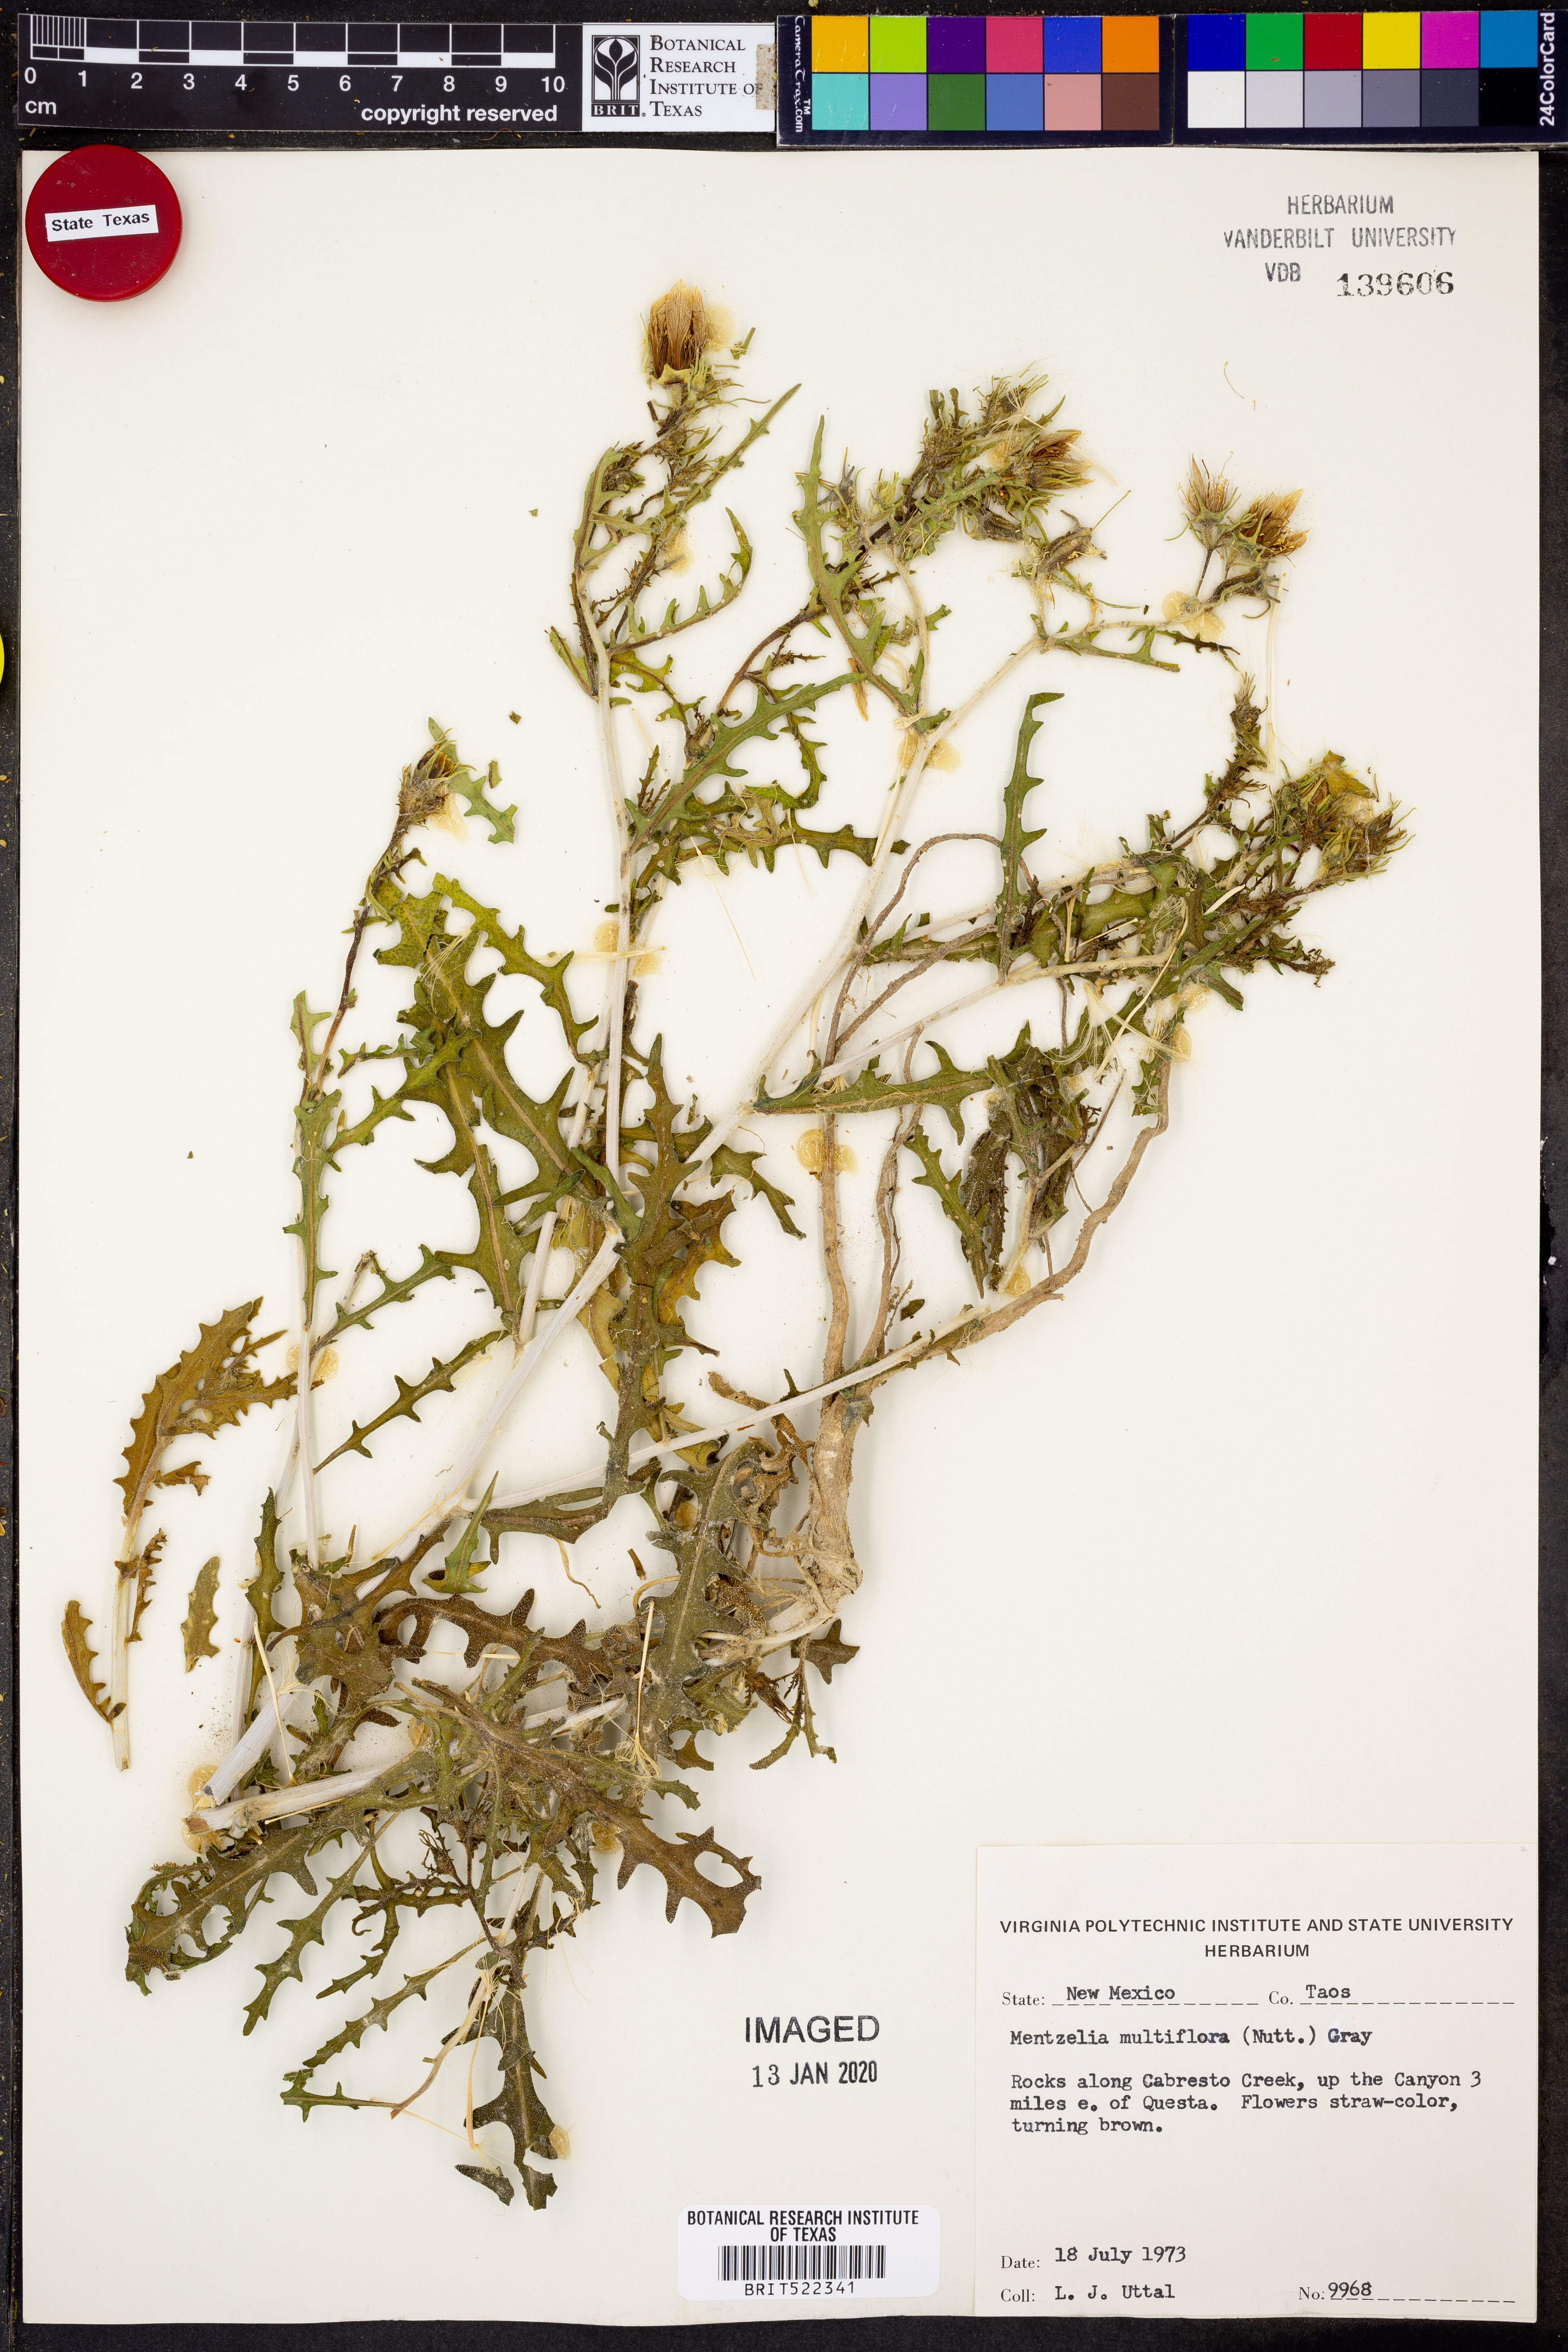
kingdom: Plantae
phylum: Tracheophyta
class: Magnoliopsida
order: Cornales
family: Loasaceae
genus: Mentzelia
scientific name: Mentzelia multiflora
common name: Adonis blazingstar
